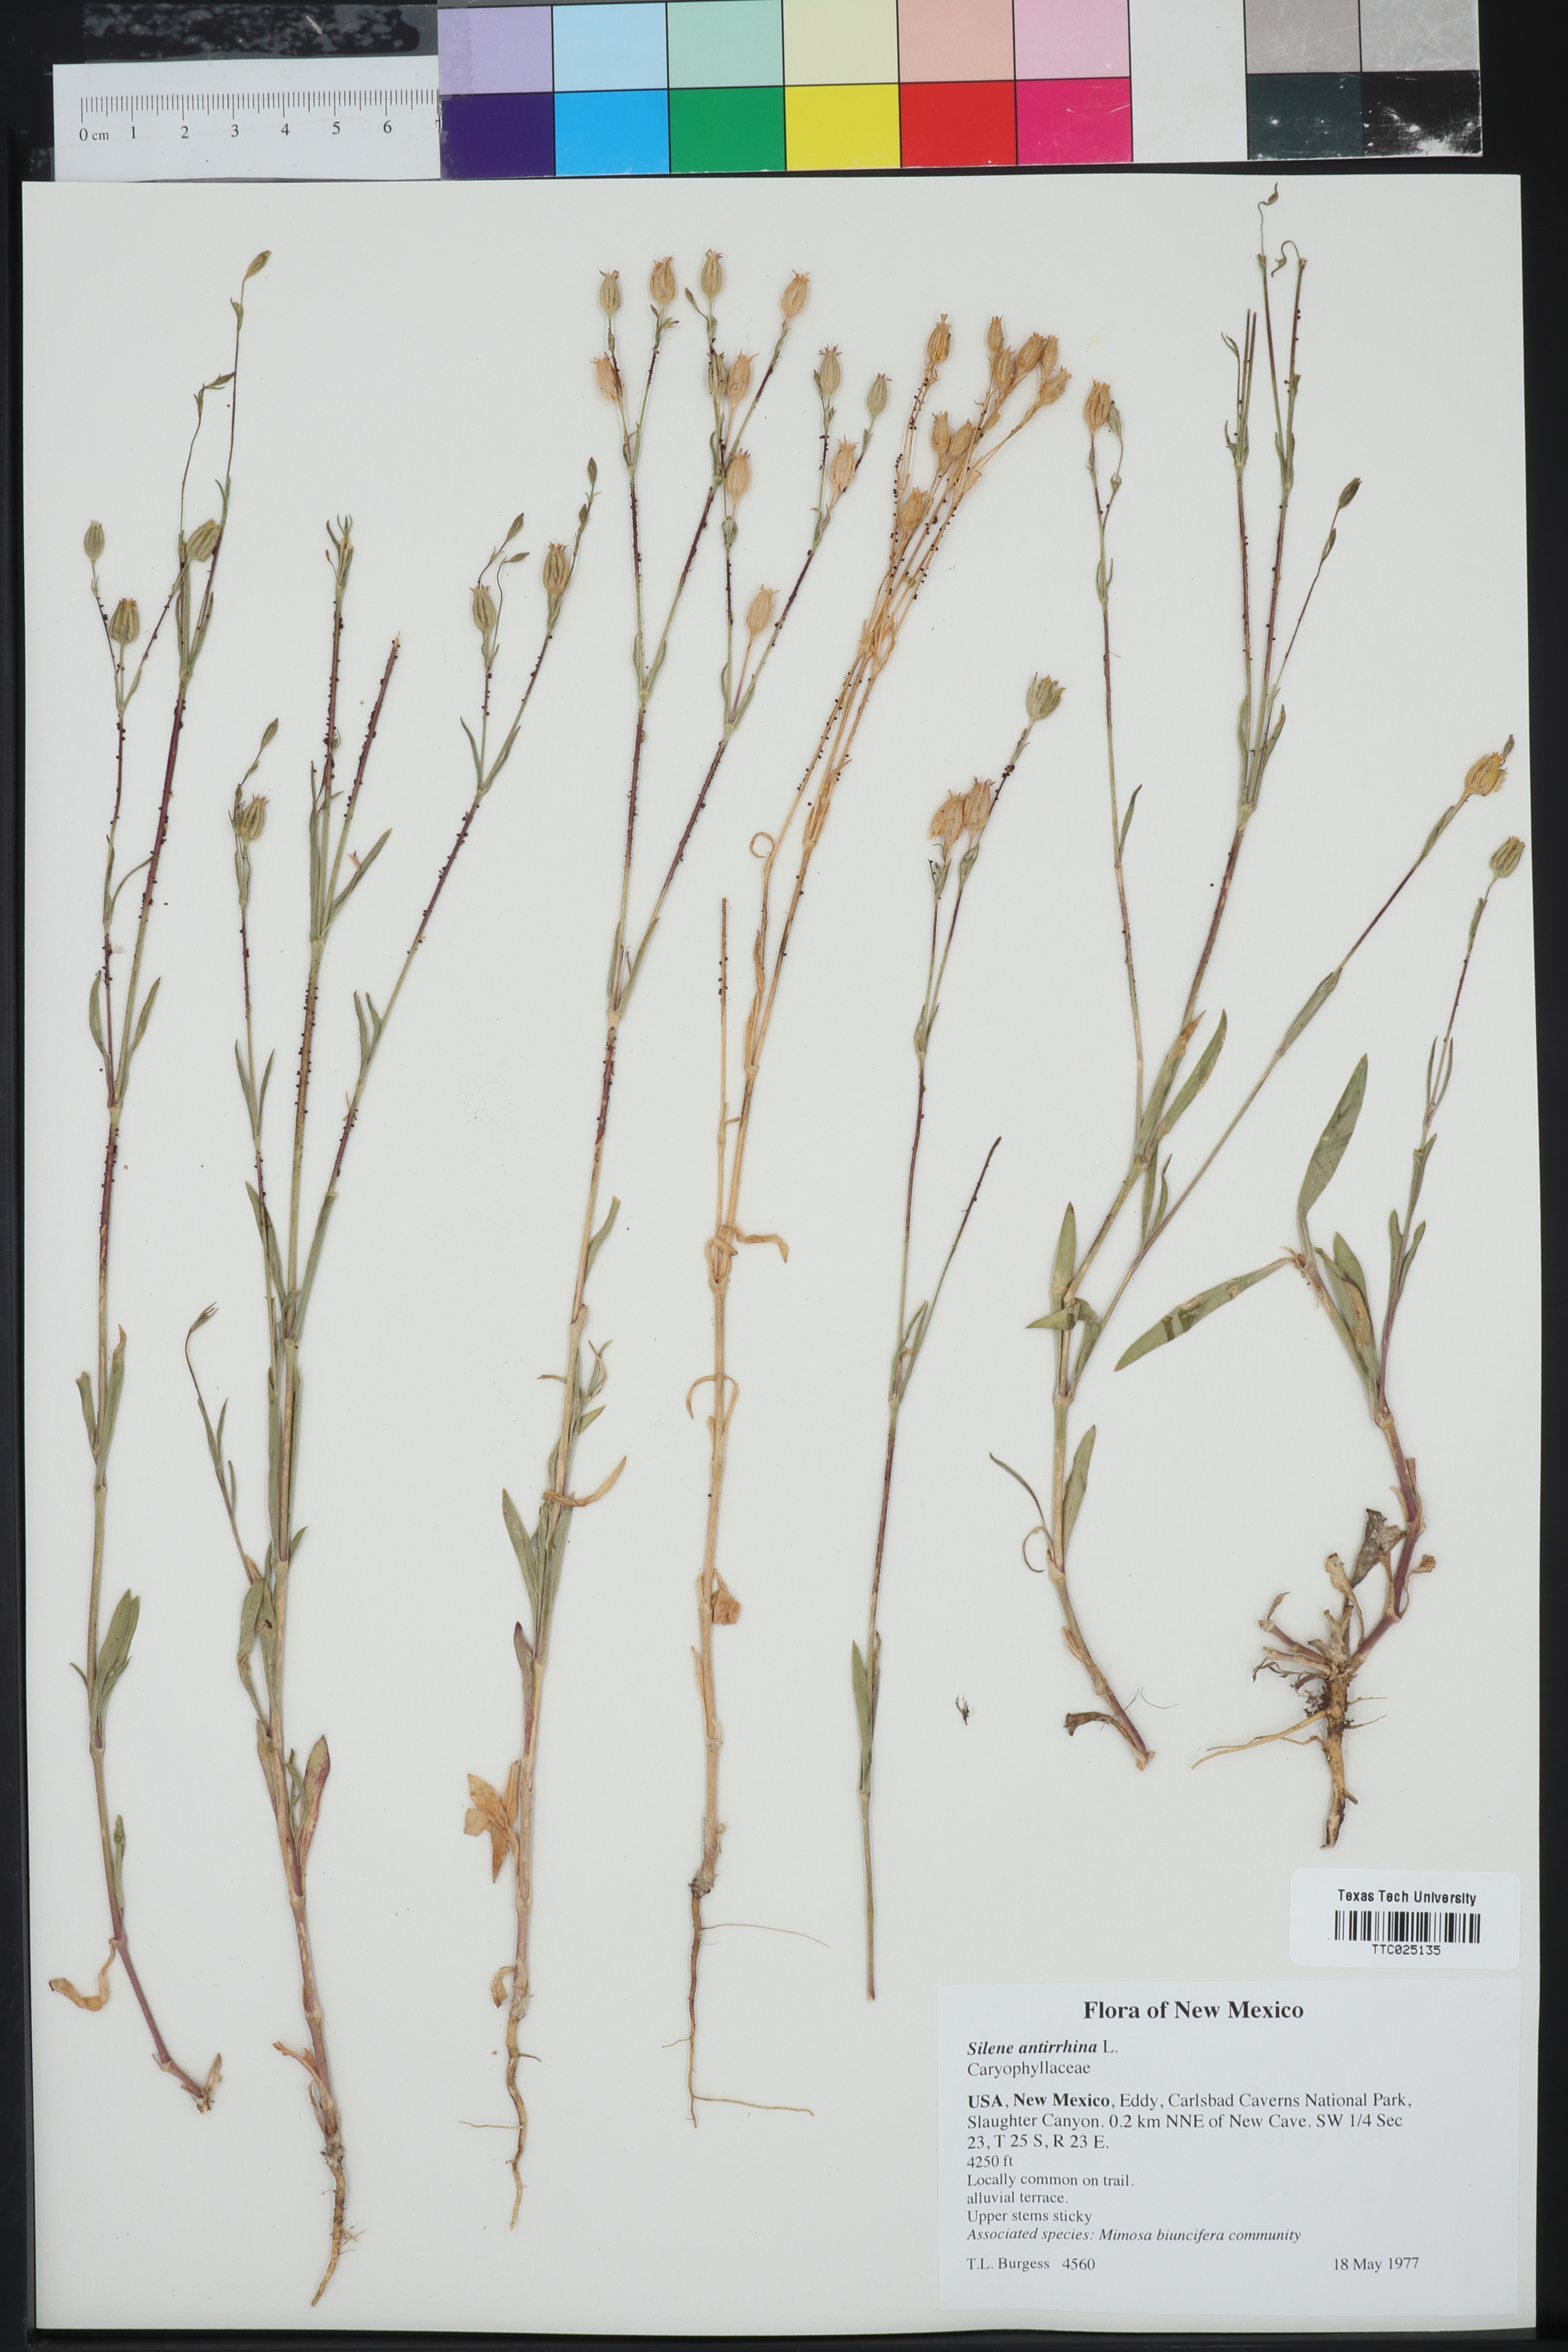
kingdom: Plantae
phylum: Tracheophyta
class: Magnoliopsida
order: Caryophyllales
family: Caryophyllaceae
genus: Silene
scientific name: Silene antirrhina
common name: Sleepy catchfly
